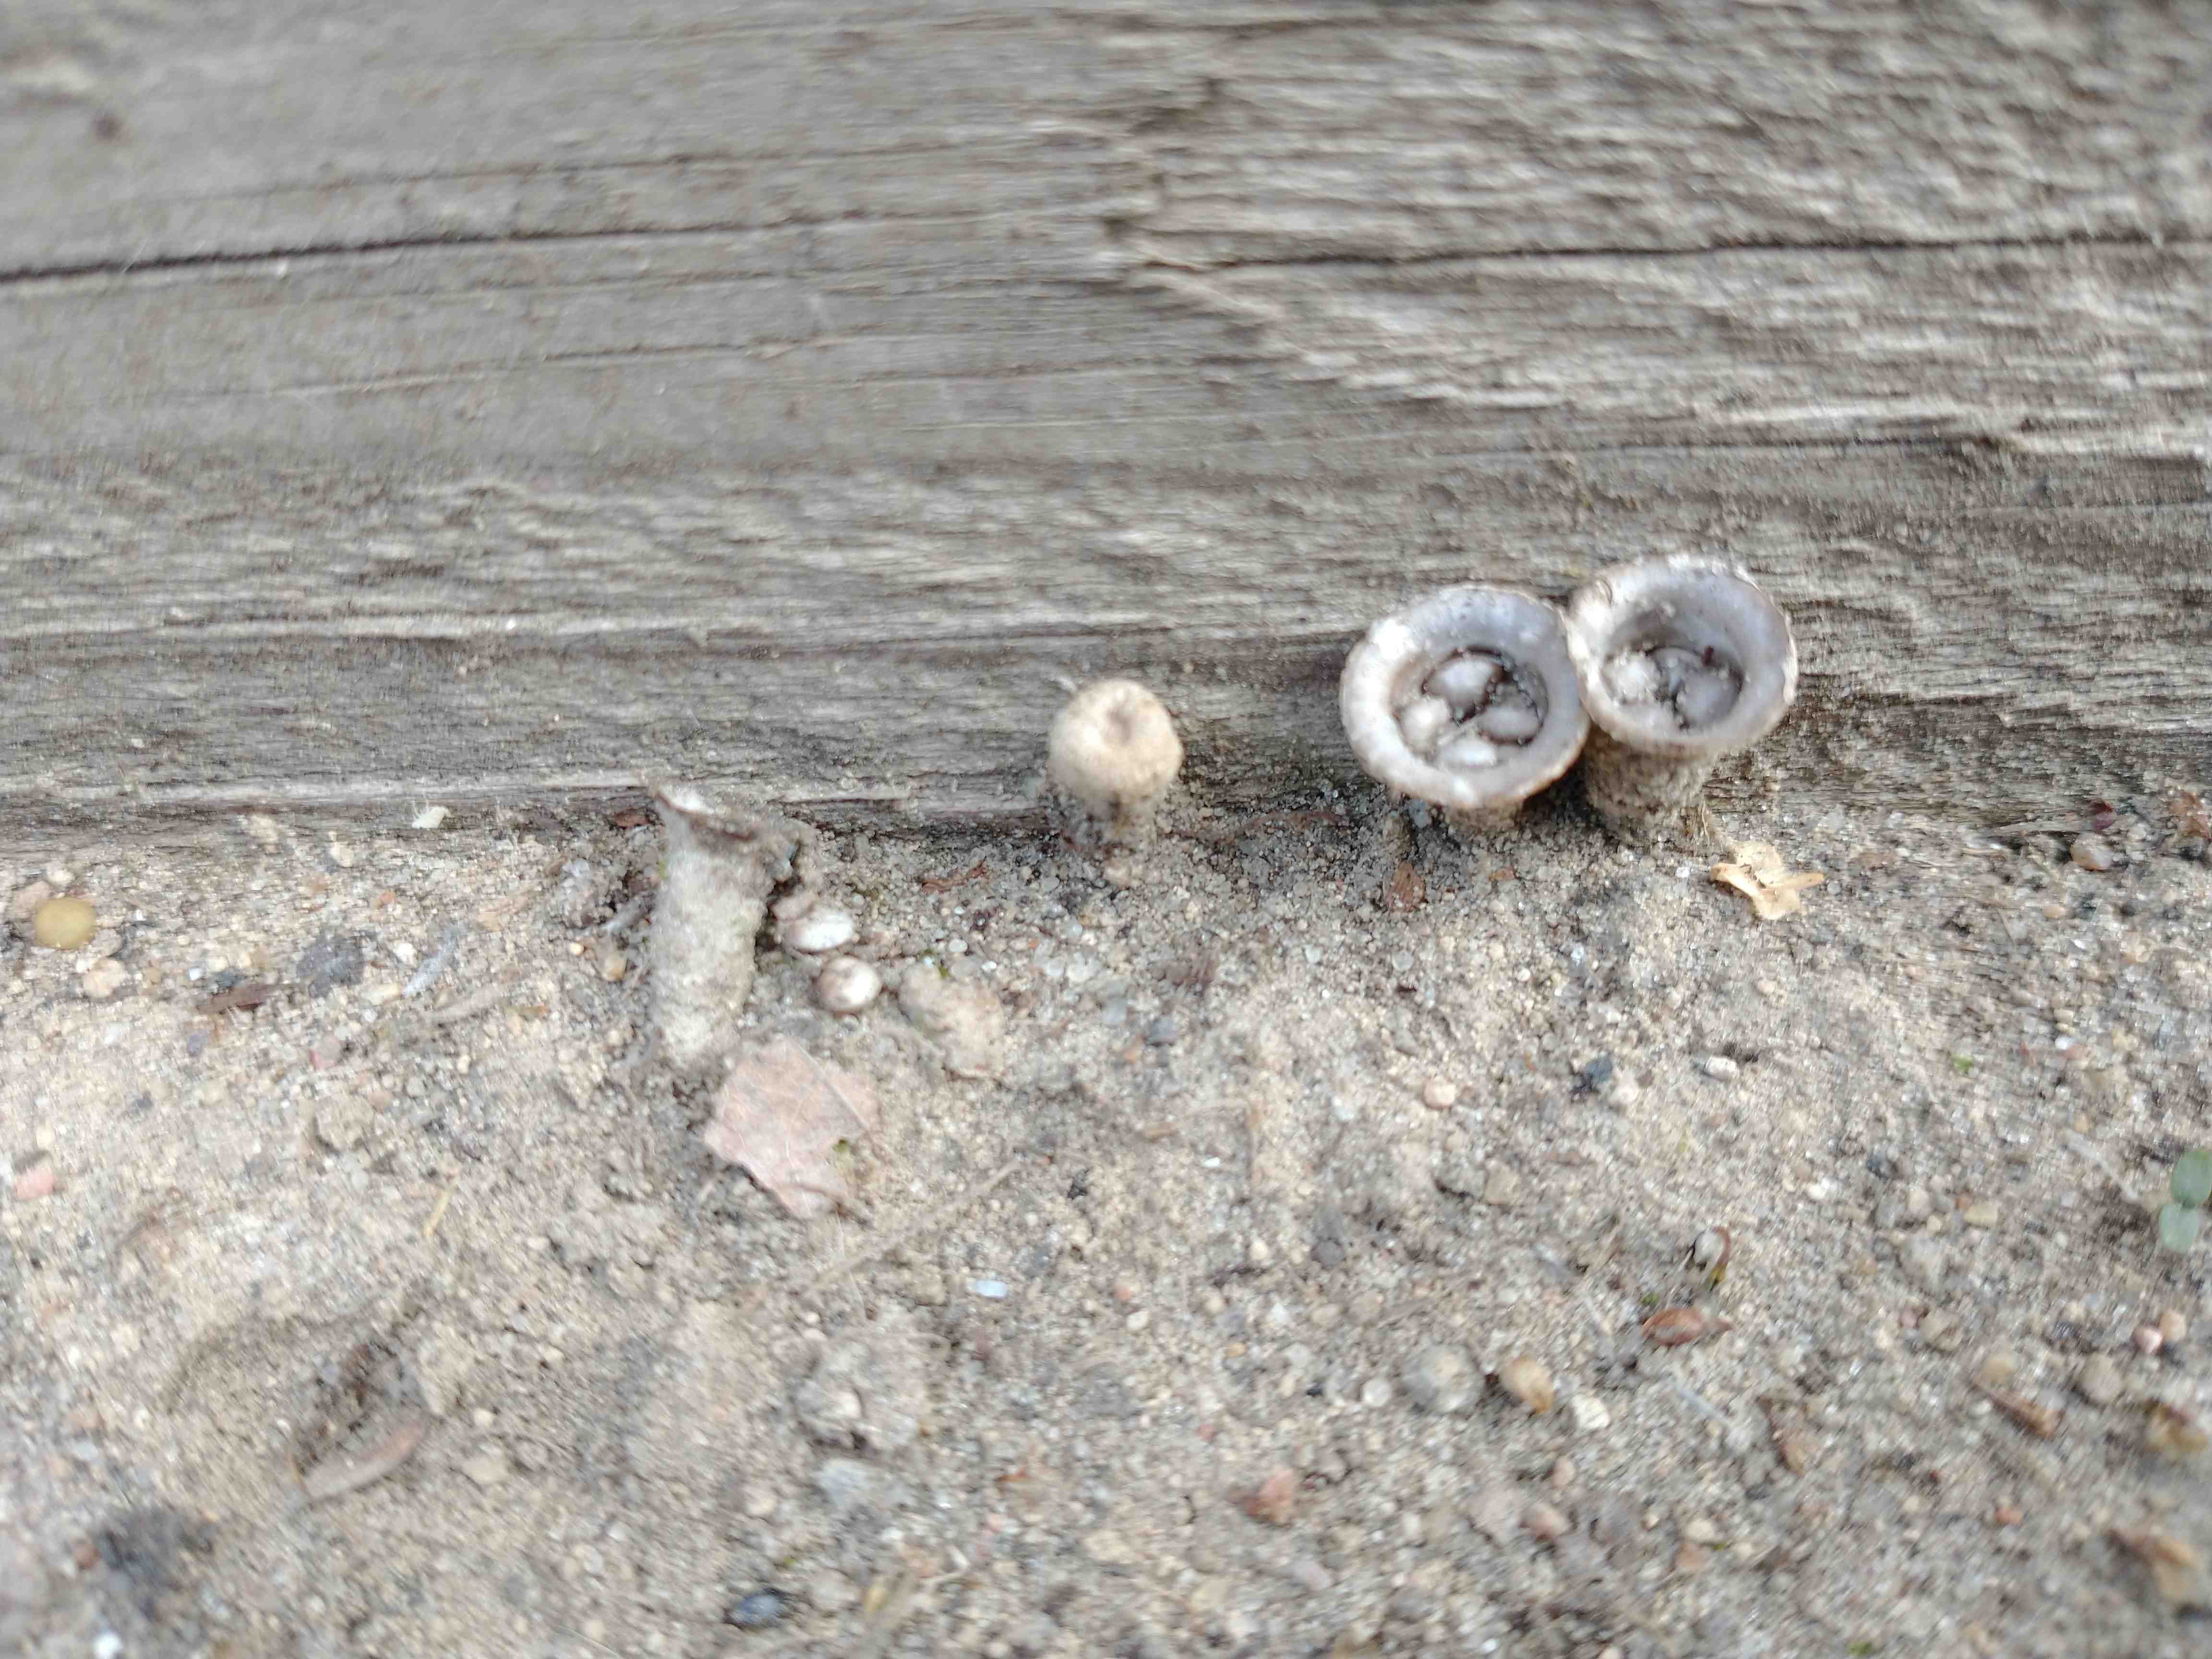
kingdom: Fungi
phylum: Basidiomycota
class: Agaricomycetes
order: Agaricales
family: Agaricaceae
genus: Cyathus
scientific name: Cyathus olla
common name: klokke-redesvamp
